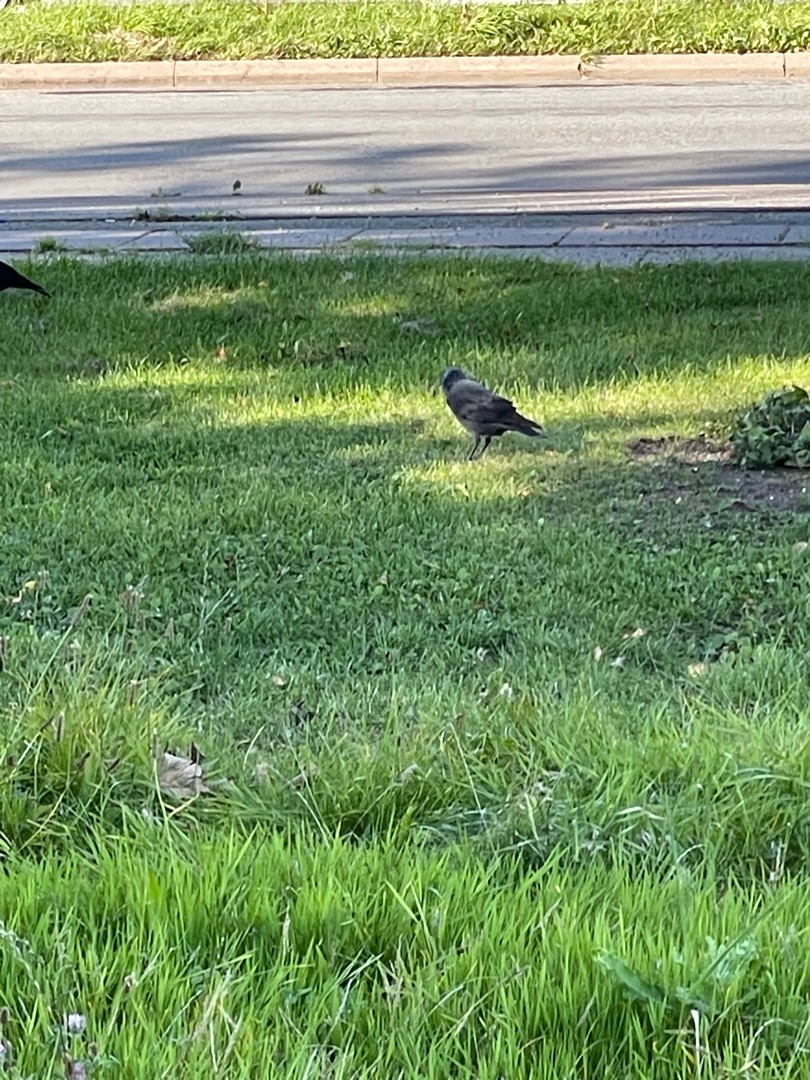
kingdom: Animalia
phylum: Chordata
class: Aves
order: Passeriformes
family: Corvidae
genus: Coloeus
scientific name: Coloeus monedula
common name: Allike
